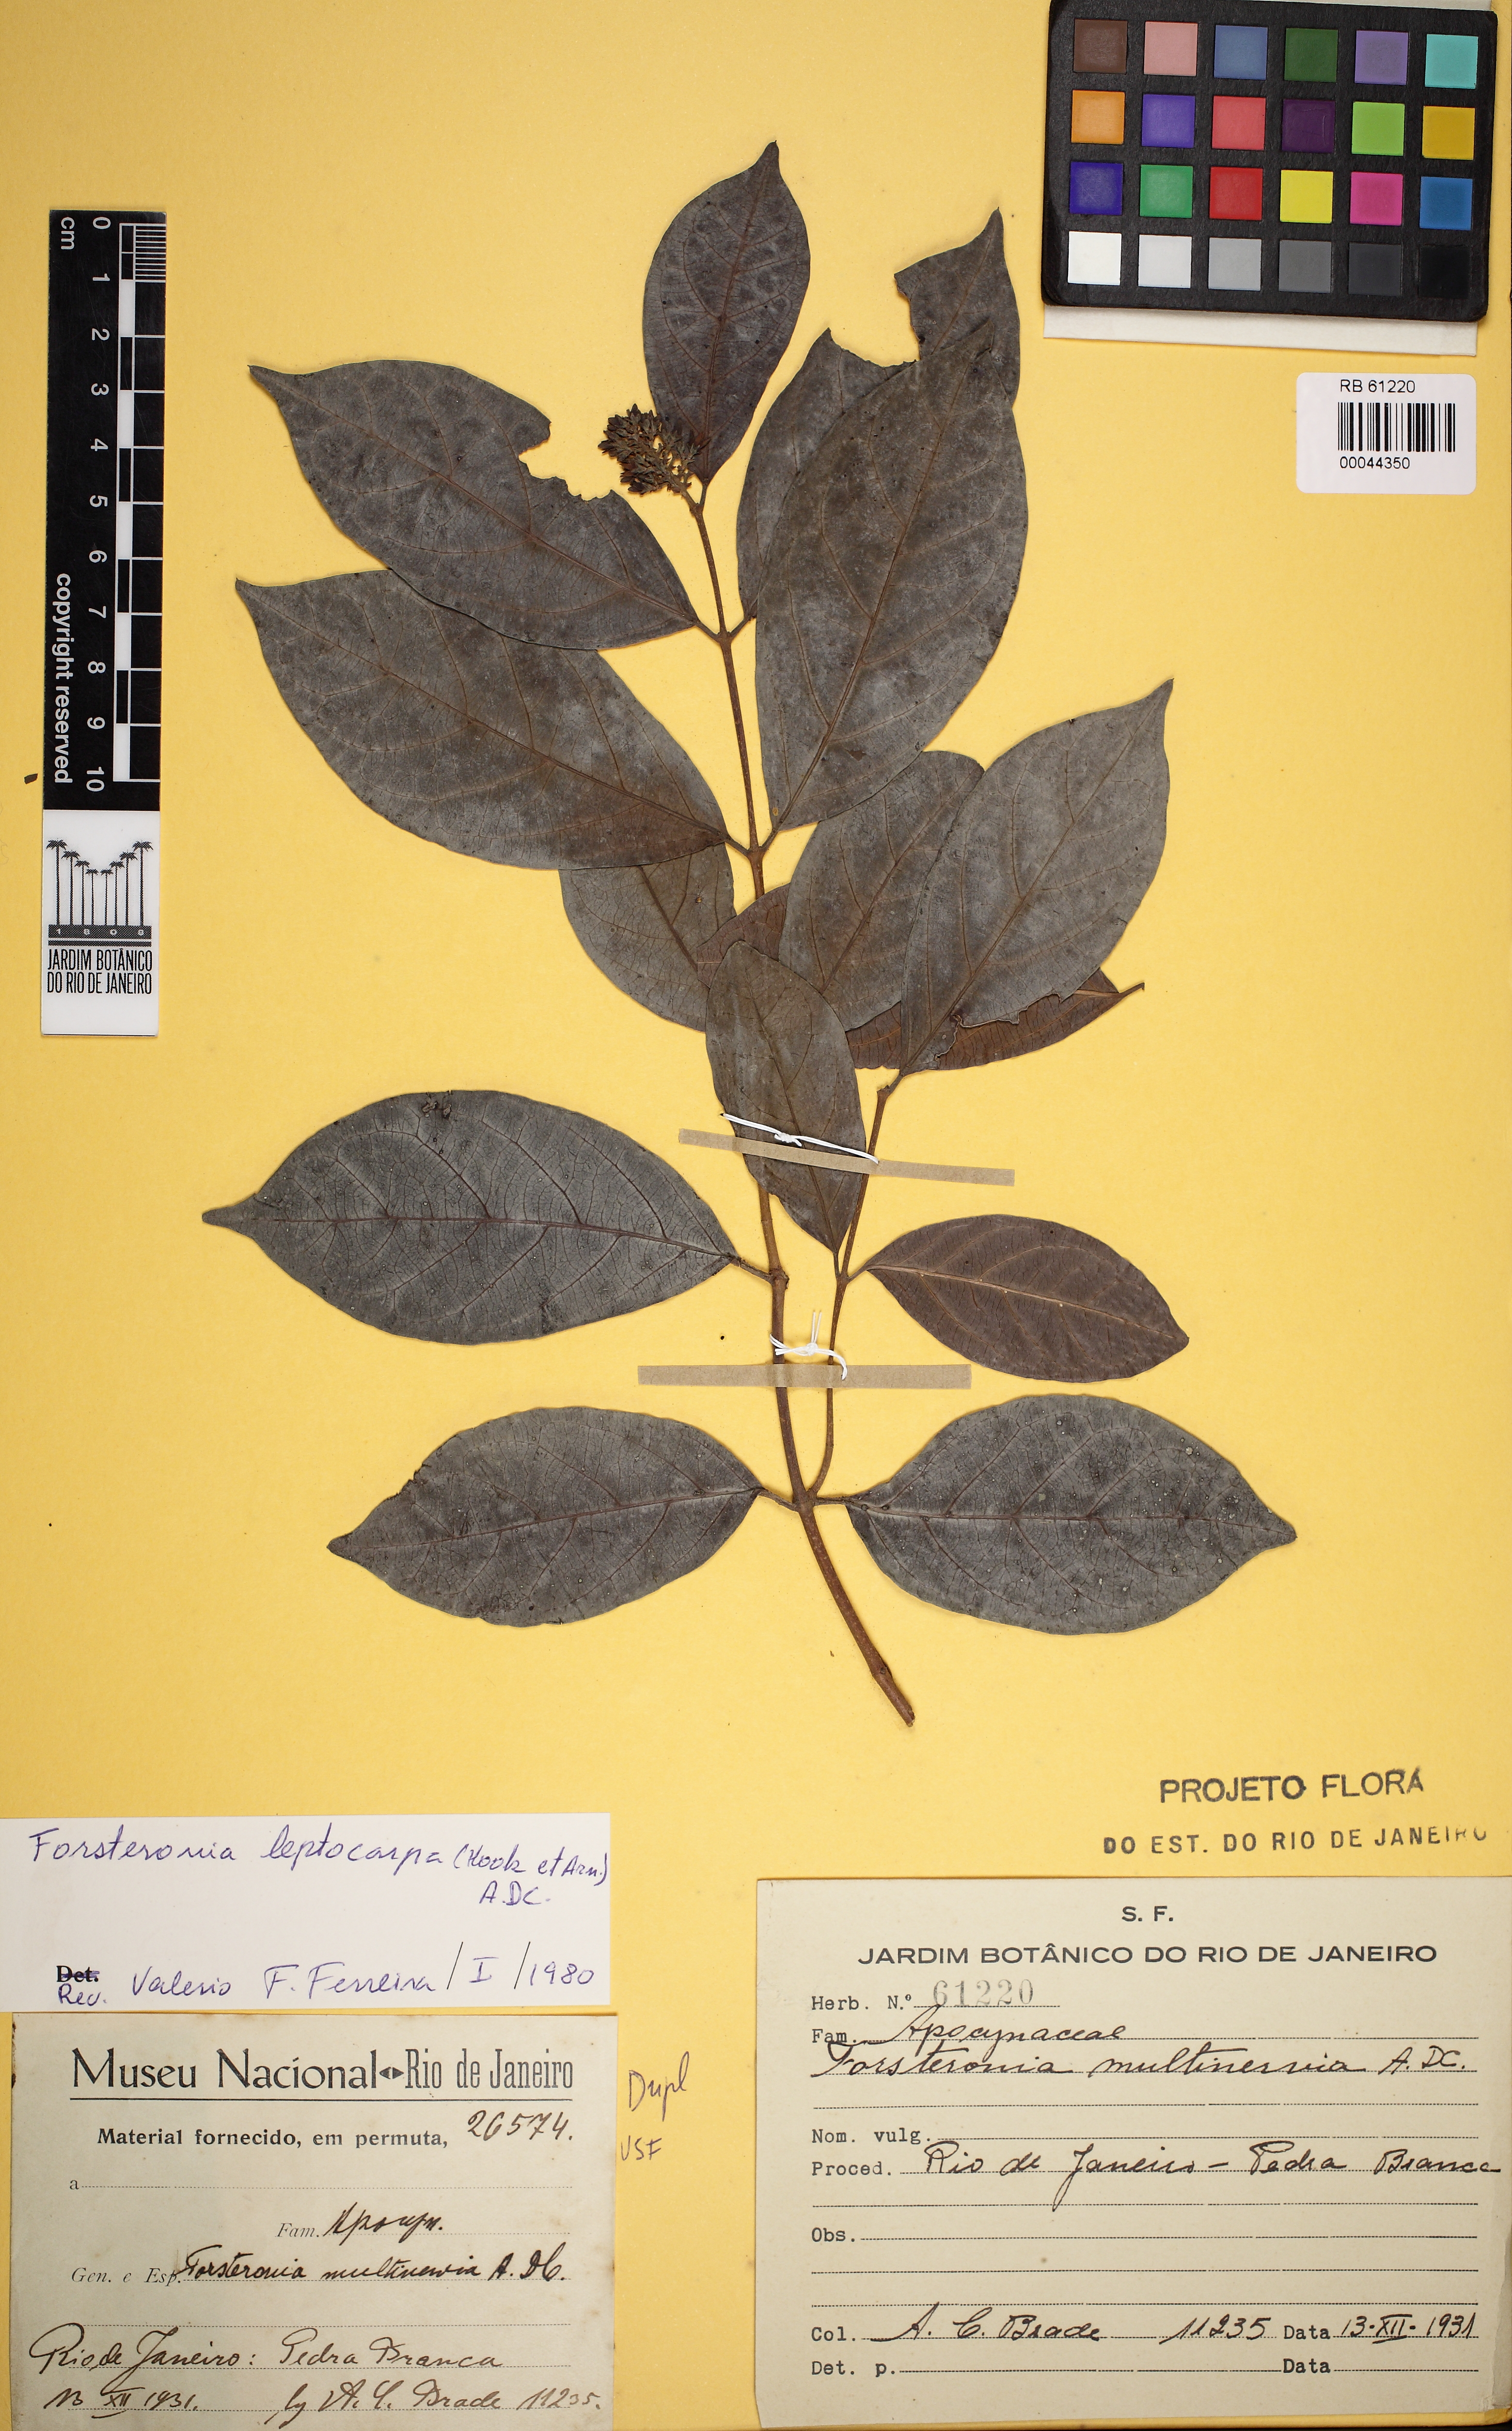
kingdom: Plantae
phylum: Tracheophyta
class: Magnoliopsida
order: Gentianales
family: Apocynaceae
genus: Forsteronia
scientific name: Forsteronia leptocarpa
